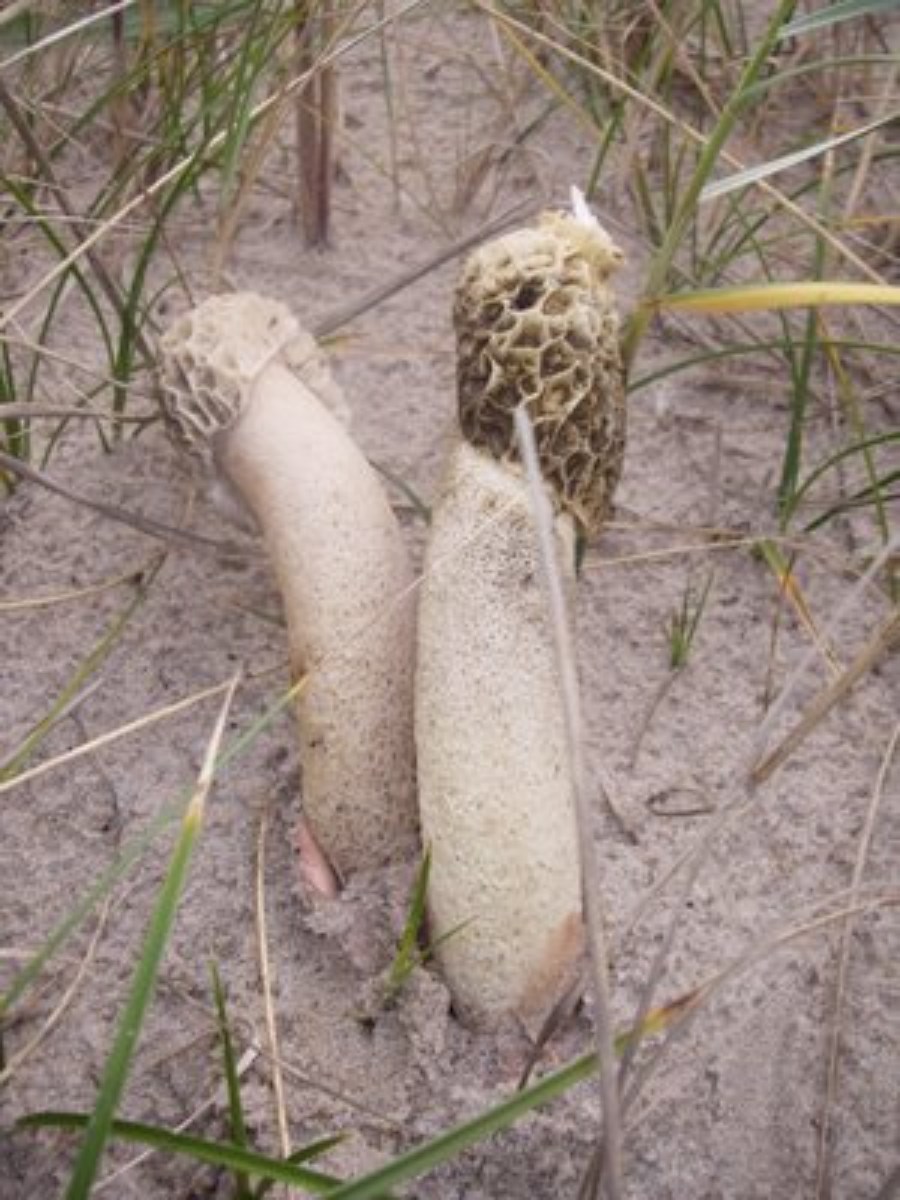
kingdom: Fungi
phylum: Basidiomycota
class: Agaricomycetes
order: Phallales
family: Phallaceae
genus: Phallus
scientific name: Phallus hadriani
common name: sand-stinksvamp
